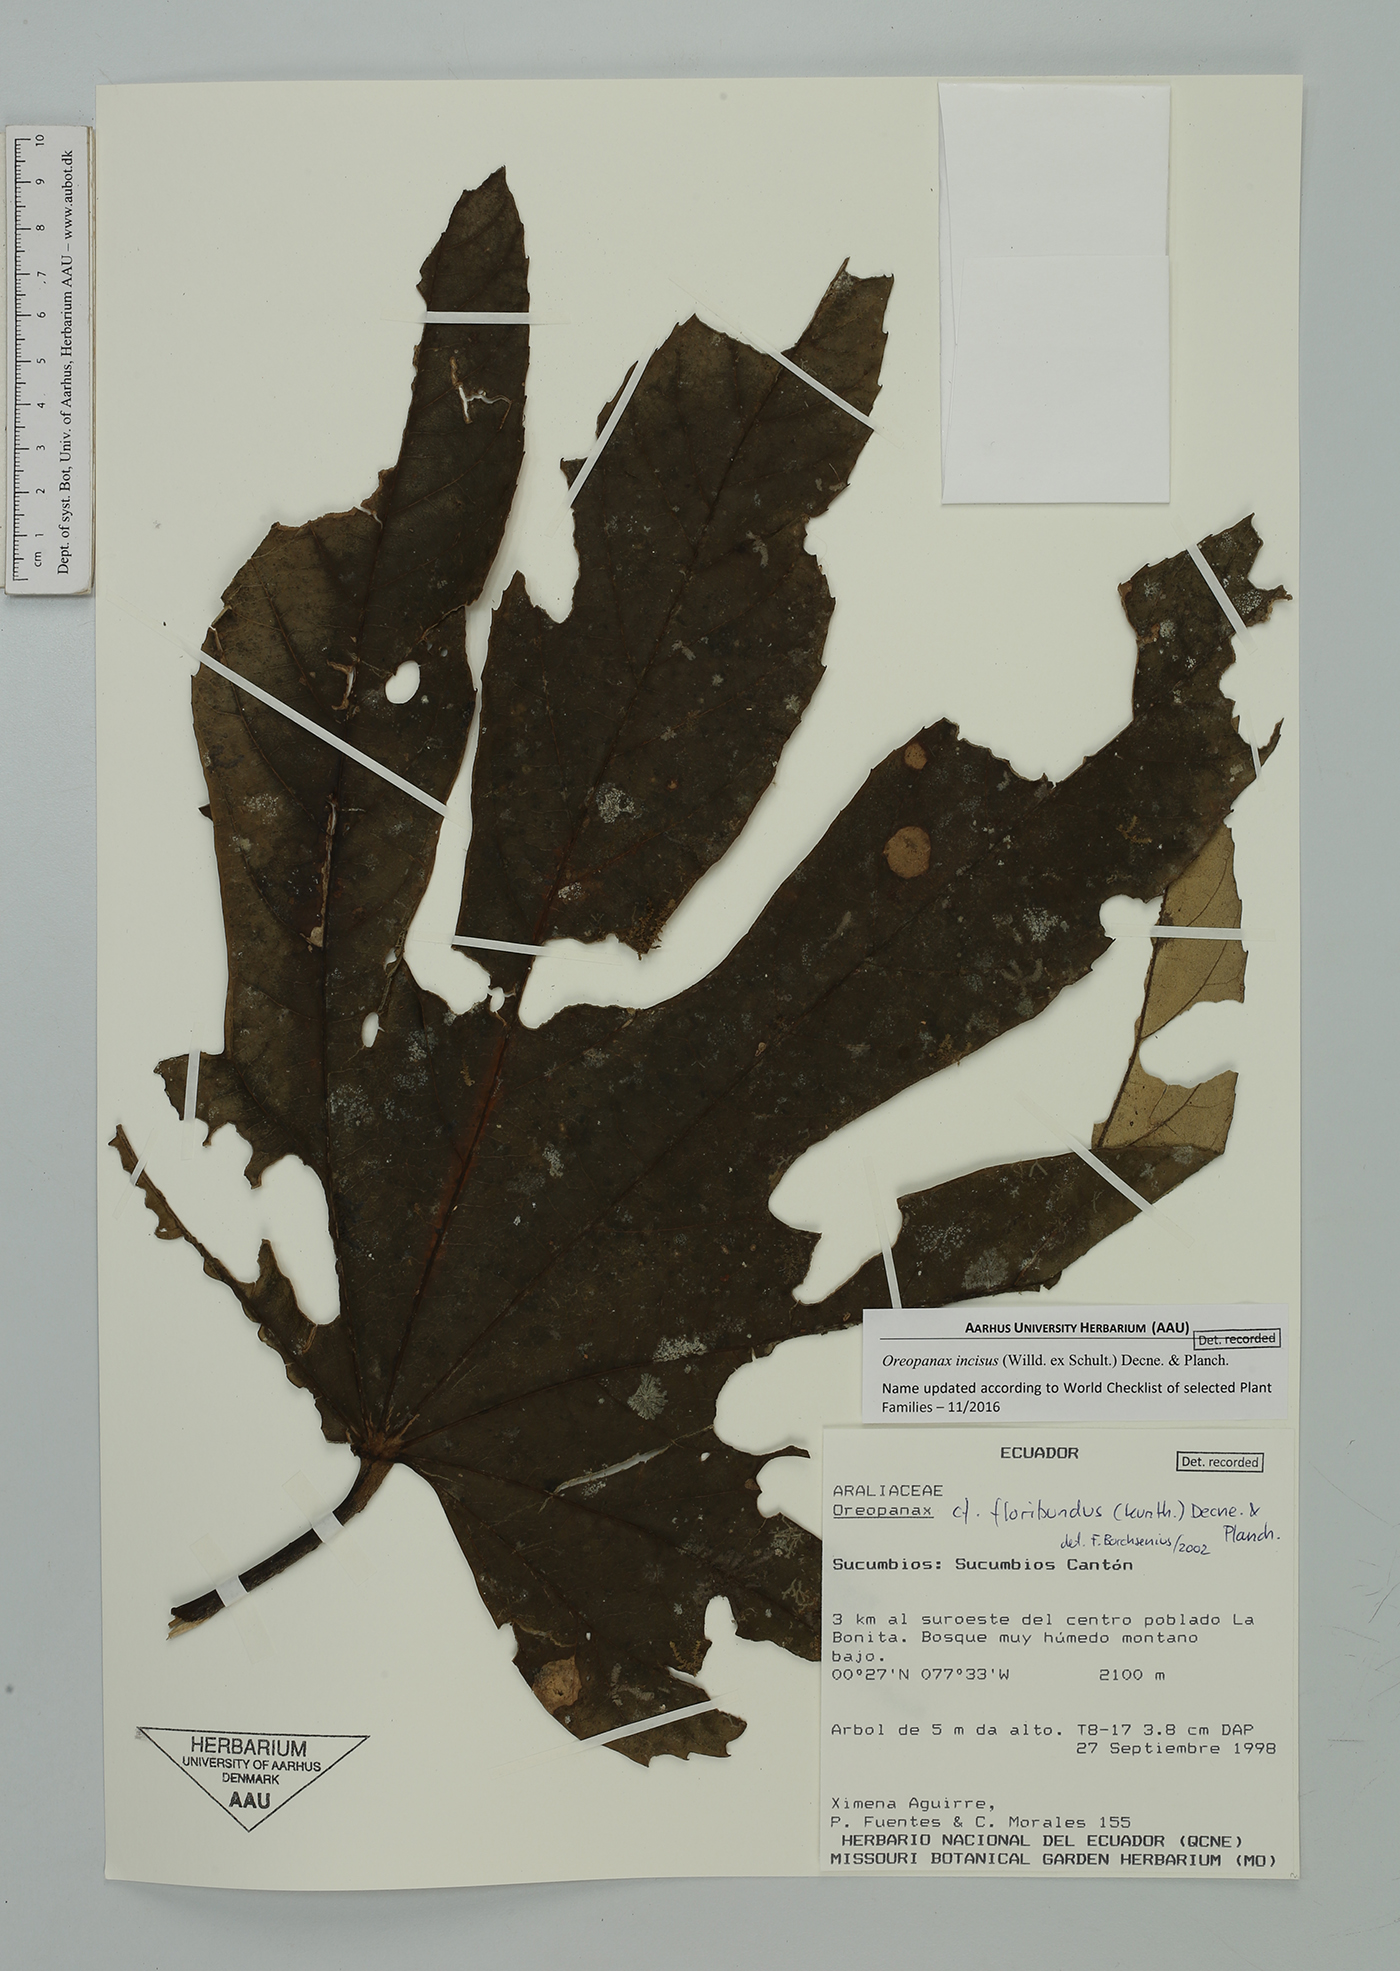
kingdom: Plantae
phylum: Tracheophyta
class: Magnoliopsida
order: Apiales
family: Araliaceae
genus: Oreopanax
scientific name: Oreopanax incisus
